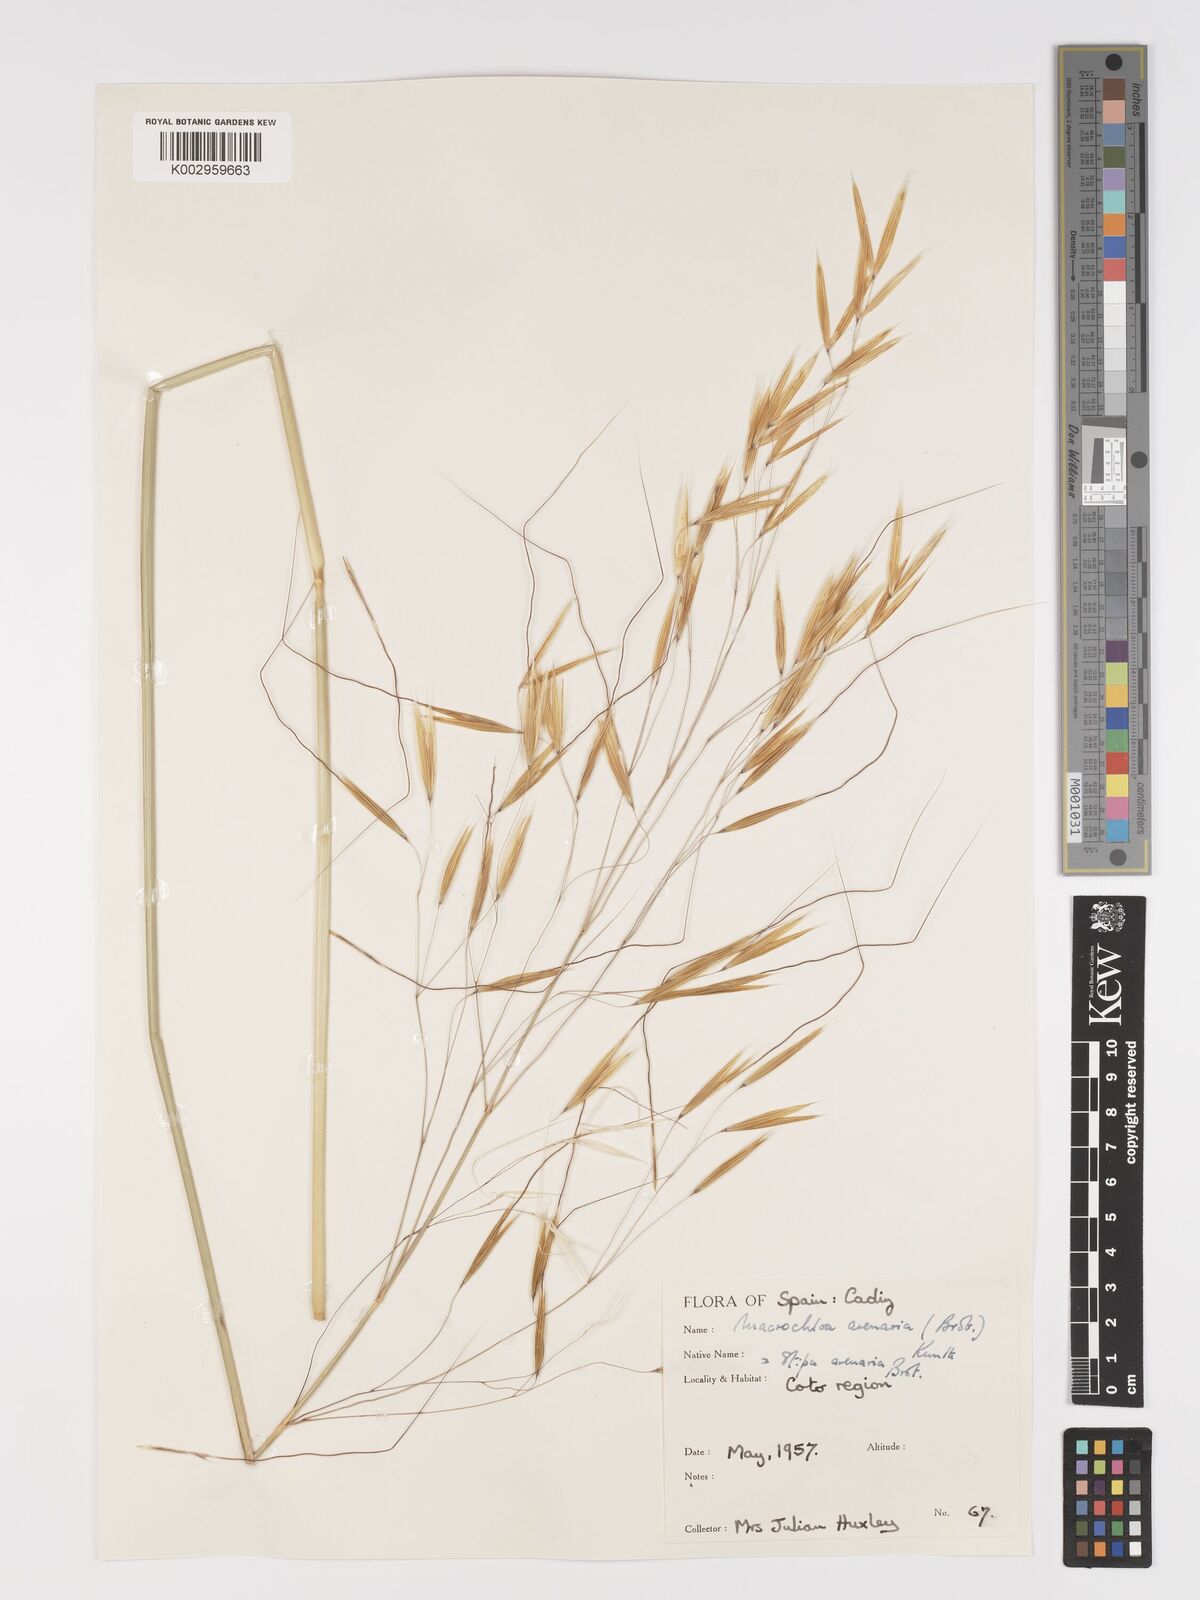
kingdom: Plantae
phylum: Tracheophyta
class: Liliopsida
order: Poales
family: Poaceae
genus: Celtica
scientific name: Celtica gigantea
